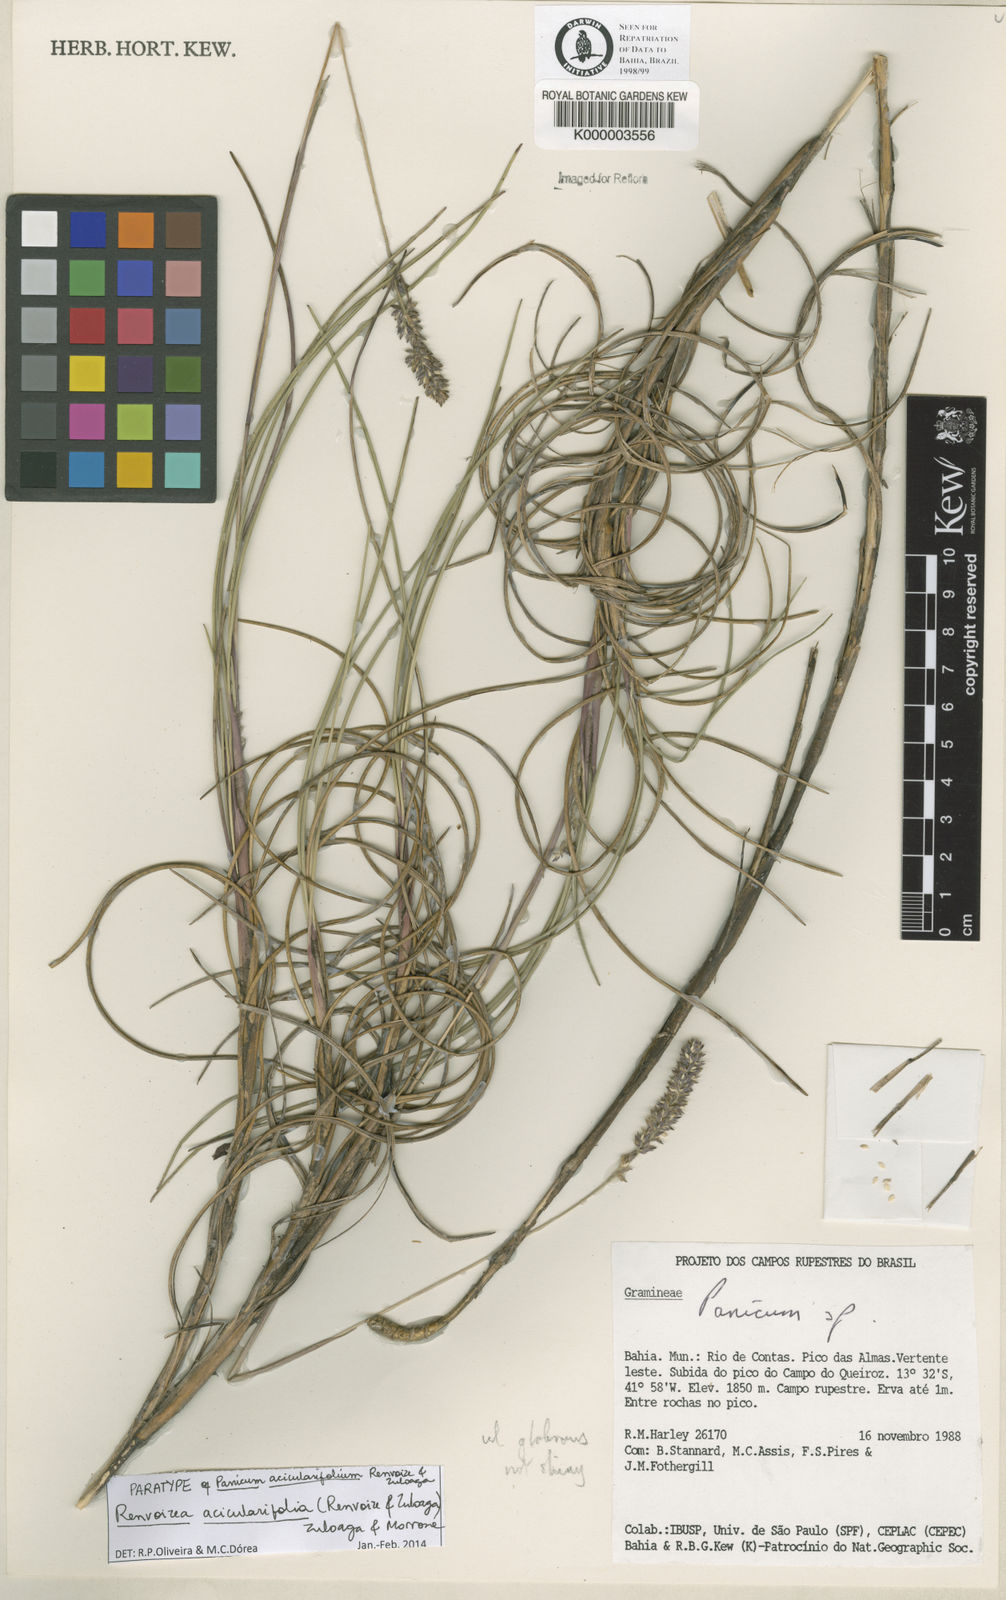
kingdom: Plantae
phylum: Tracheophyta
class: Liliopsida
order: Poales
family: Poaceae
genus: Renvoizea
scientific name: Renvoizea acicularifolia
